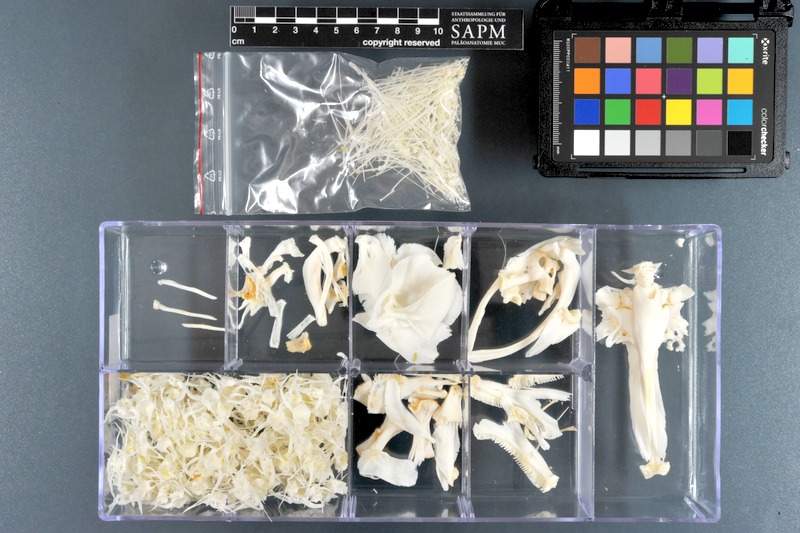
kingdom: Animalia
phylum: Chordata
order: Gymnotiformes
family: Gymnotidae
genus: Electrophorus
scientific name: Electrophorus electricus
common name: Electric eel
